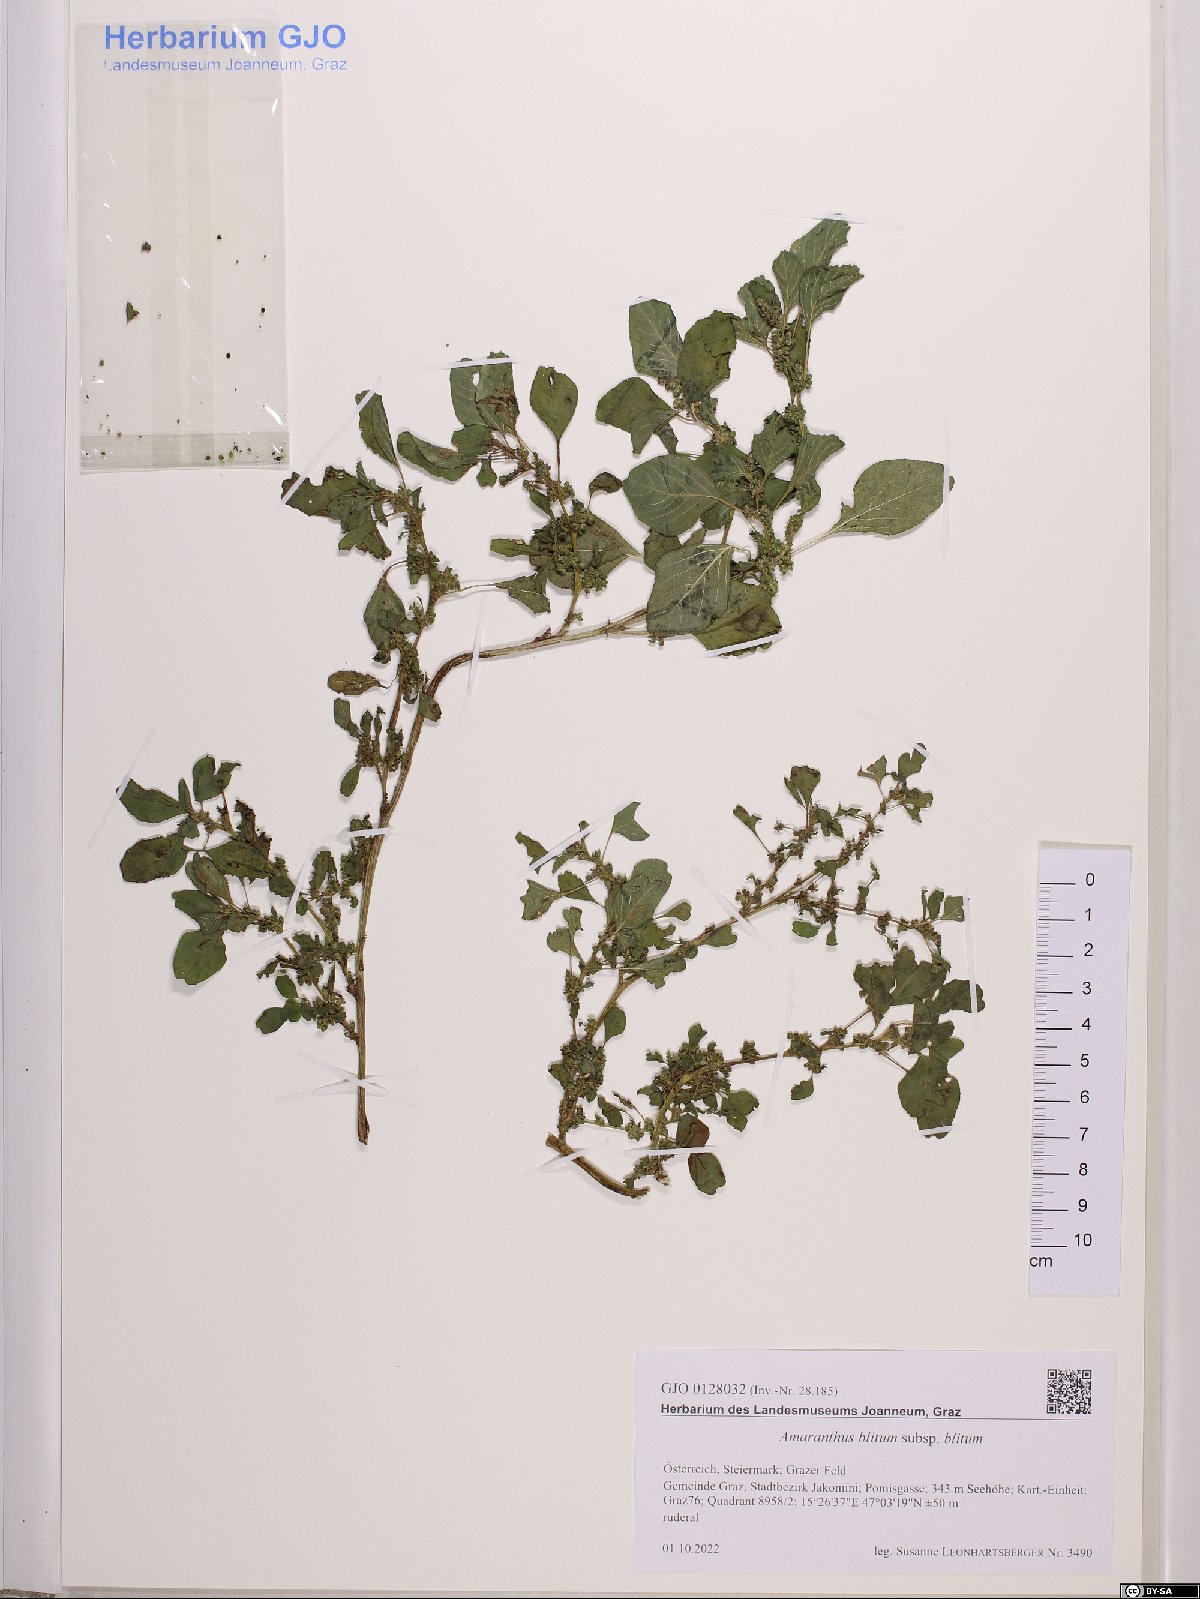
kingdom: Plantae
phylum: Tracheophyta
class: Magnoliopsida
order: Caryophyllales
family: Amaranthaceae
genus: Amaranthus
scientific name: Amaranthus blitum
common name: Purple amaranth
